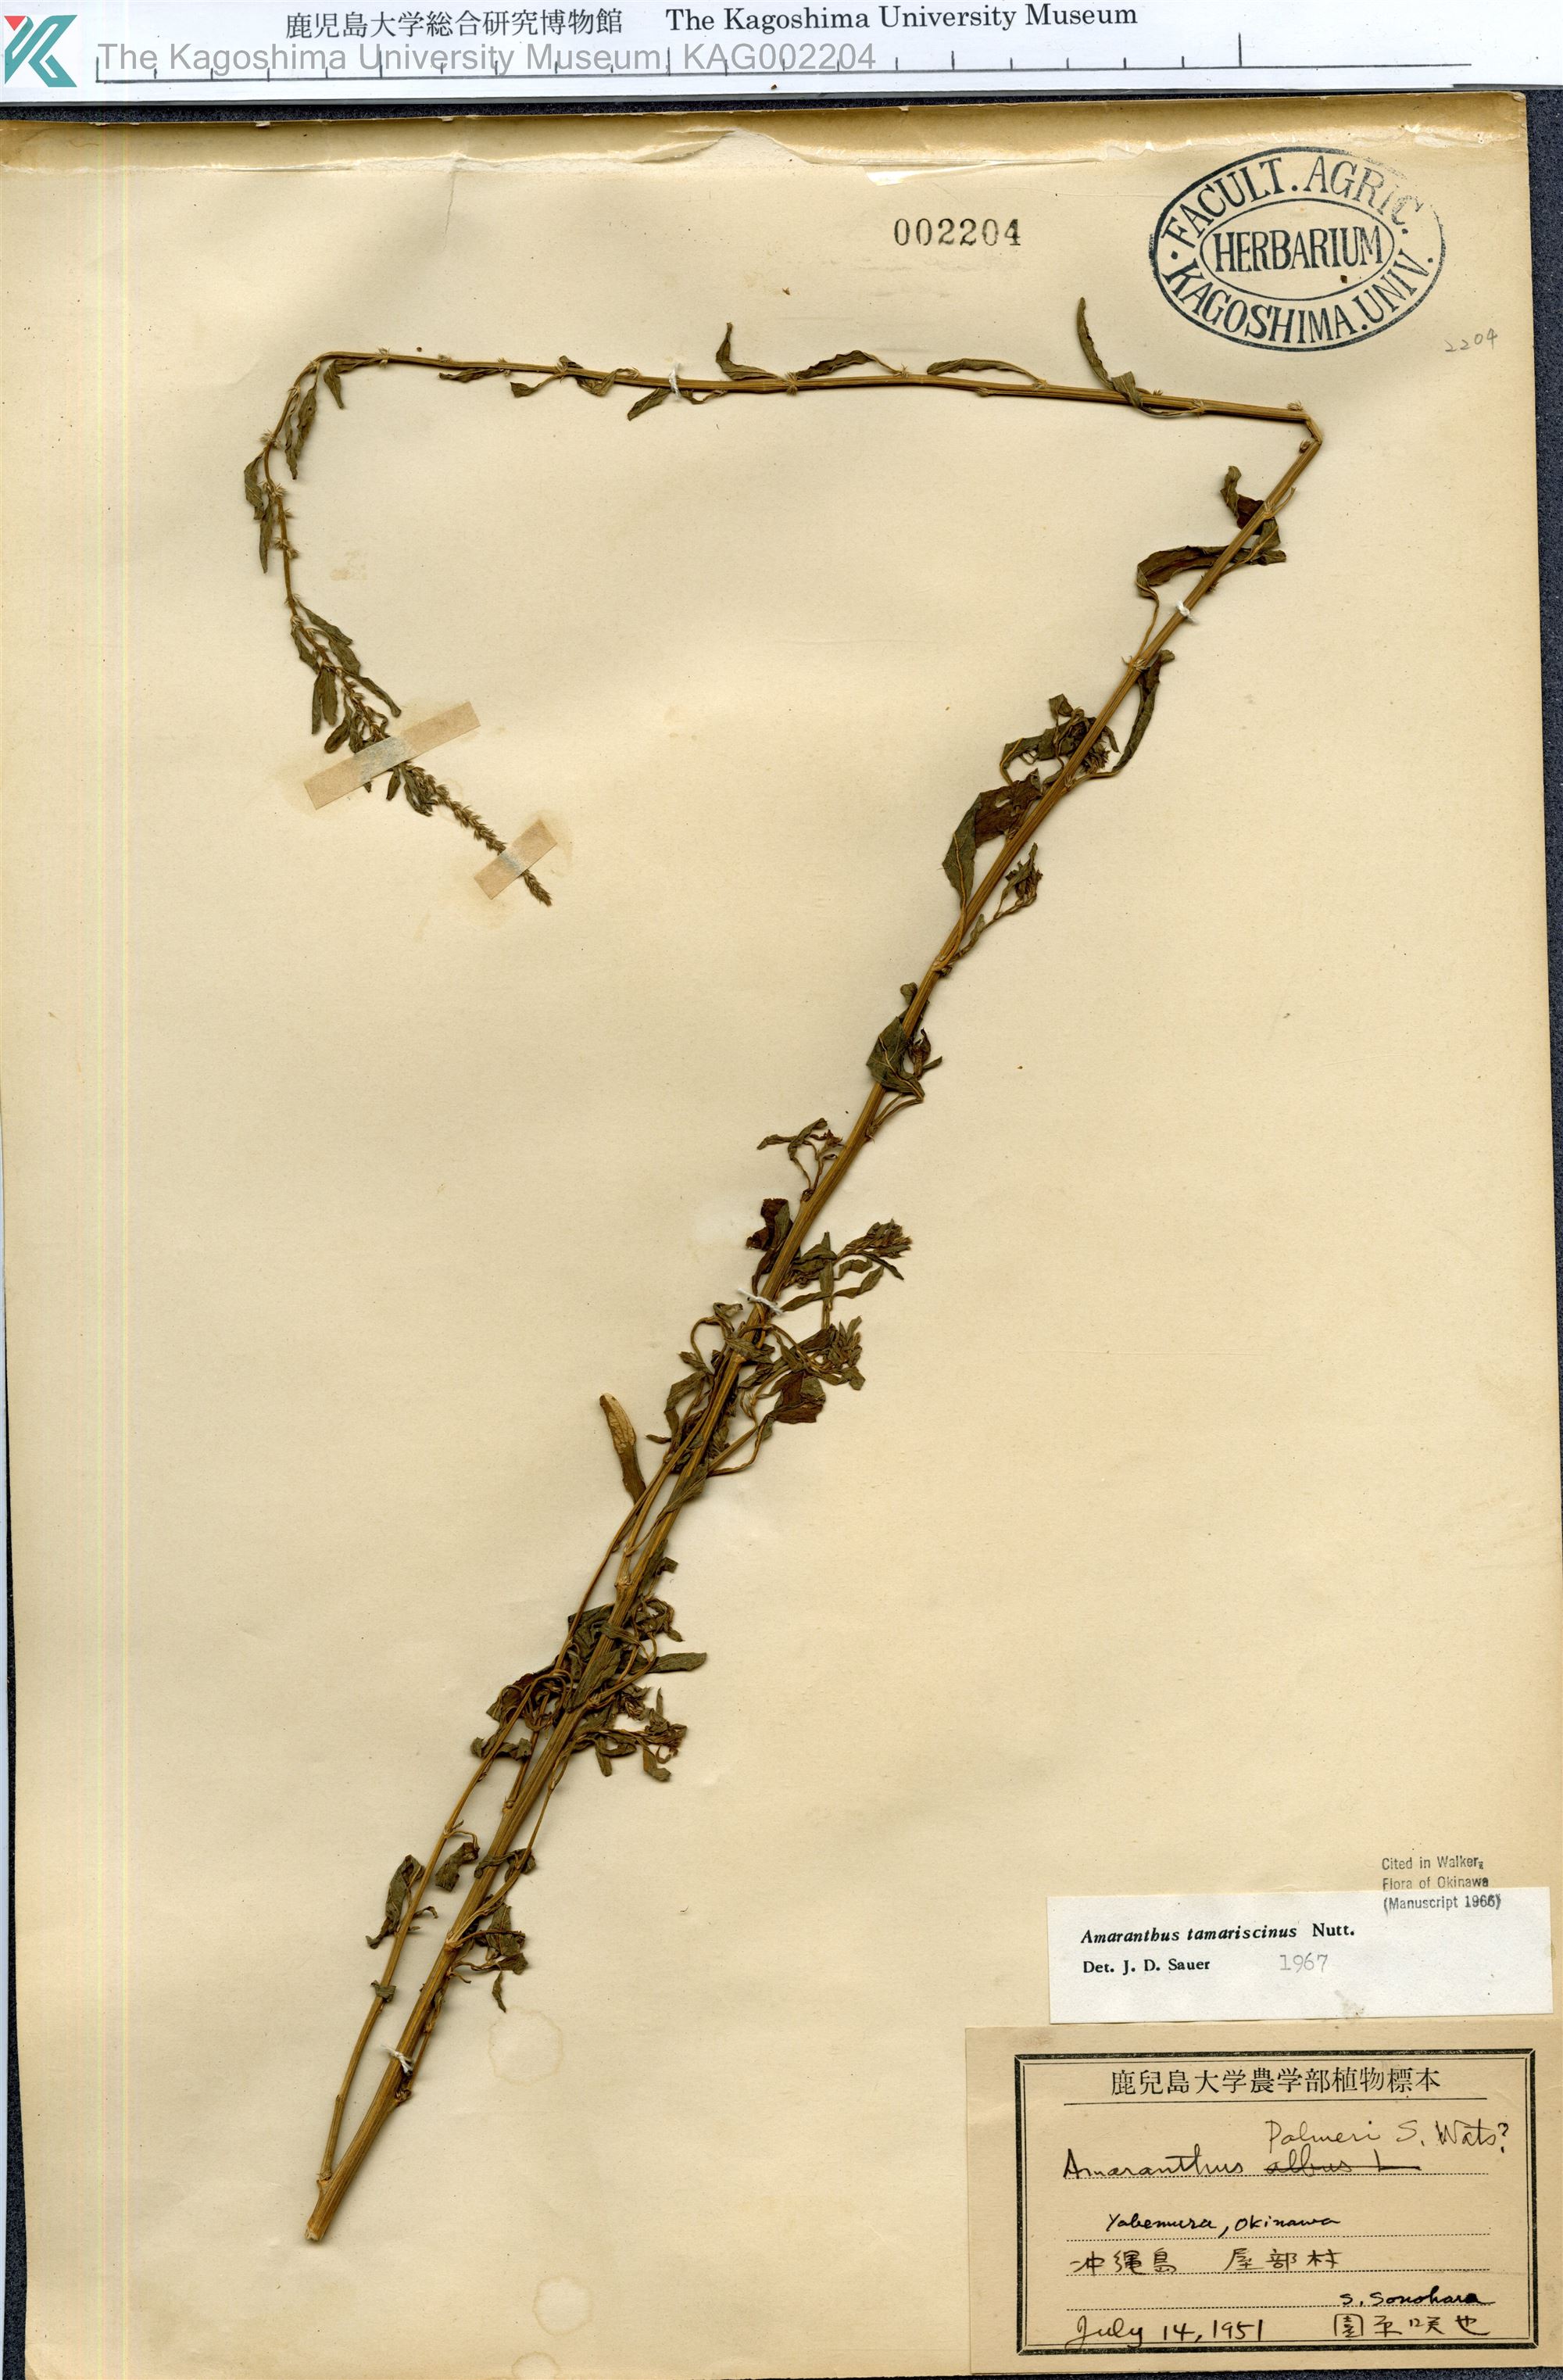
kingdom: Plantae
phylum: Tracheophyta
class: Magnoliopsida
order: Caryophyllales
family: Amaranthaceae
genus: Amaranthus
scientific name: Amaranthus tamariscinus
